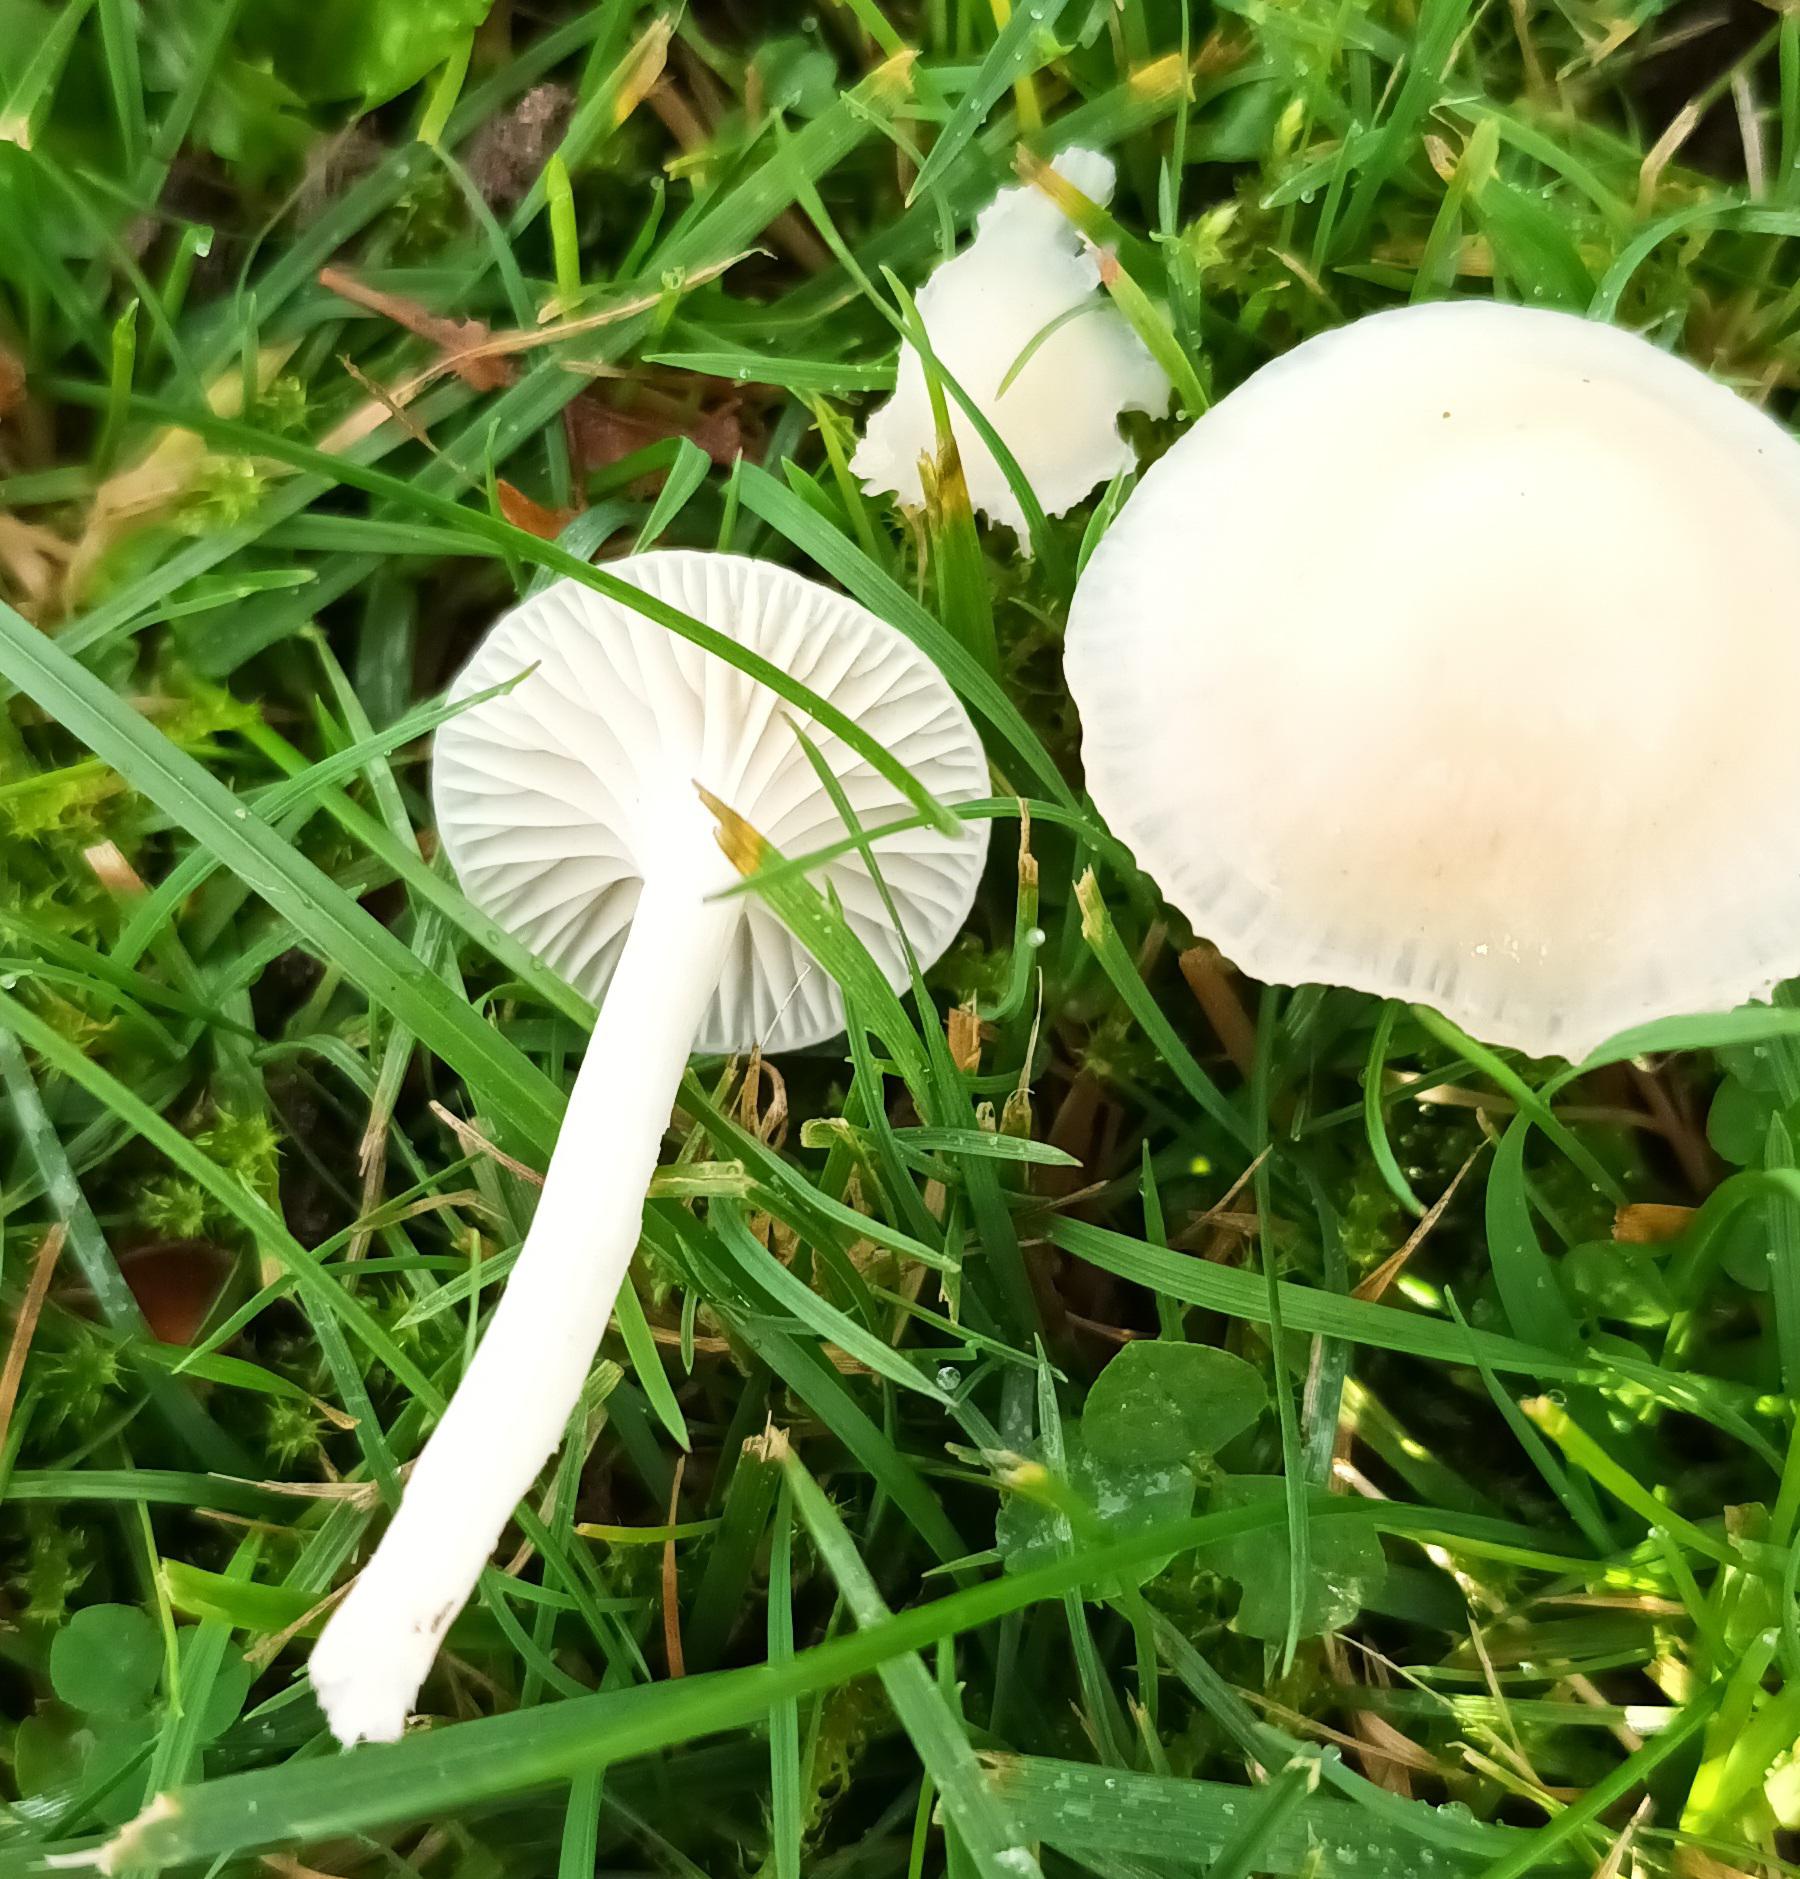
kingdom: Fungi
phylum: Basidiomycota
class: Agaricomycetes
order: Agaricales
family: Hygrophoraceae
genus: Cuphophyllus
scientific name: Cuphophyllus virgineus
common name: Snehvid vokshat
